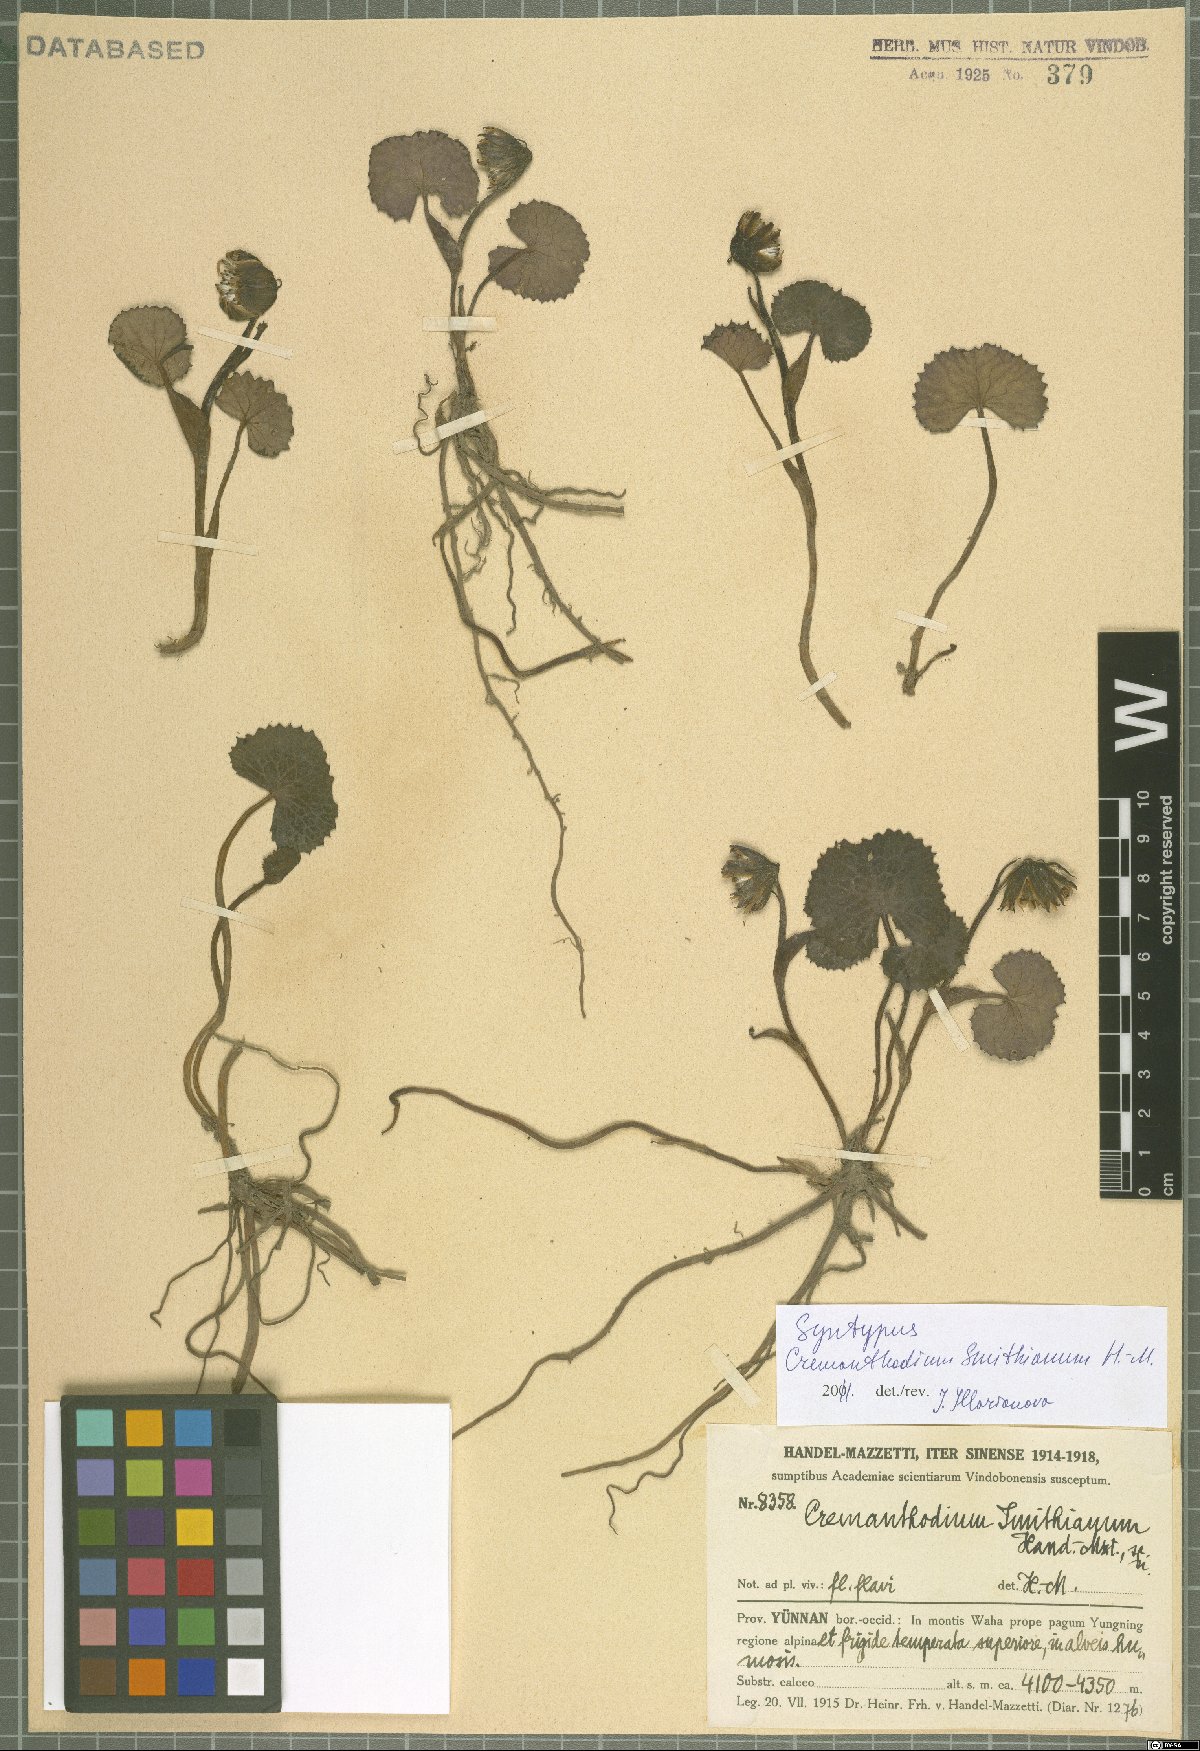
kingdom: Plantae
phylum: Tracheophyta
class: Magnoliopsida
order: Asterales
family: Asteraceae
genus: Cremanthodium
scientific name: Cremanthodium smithianum
